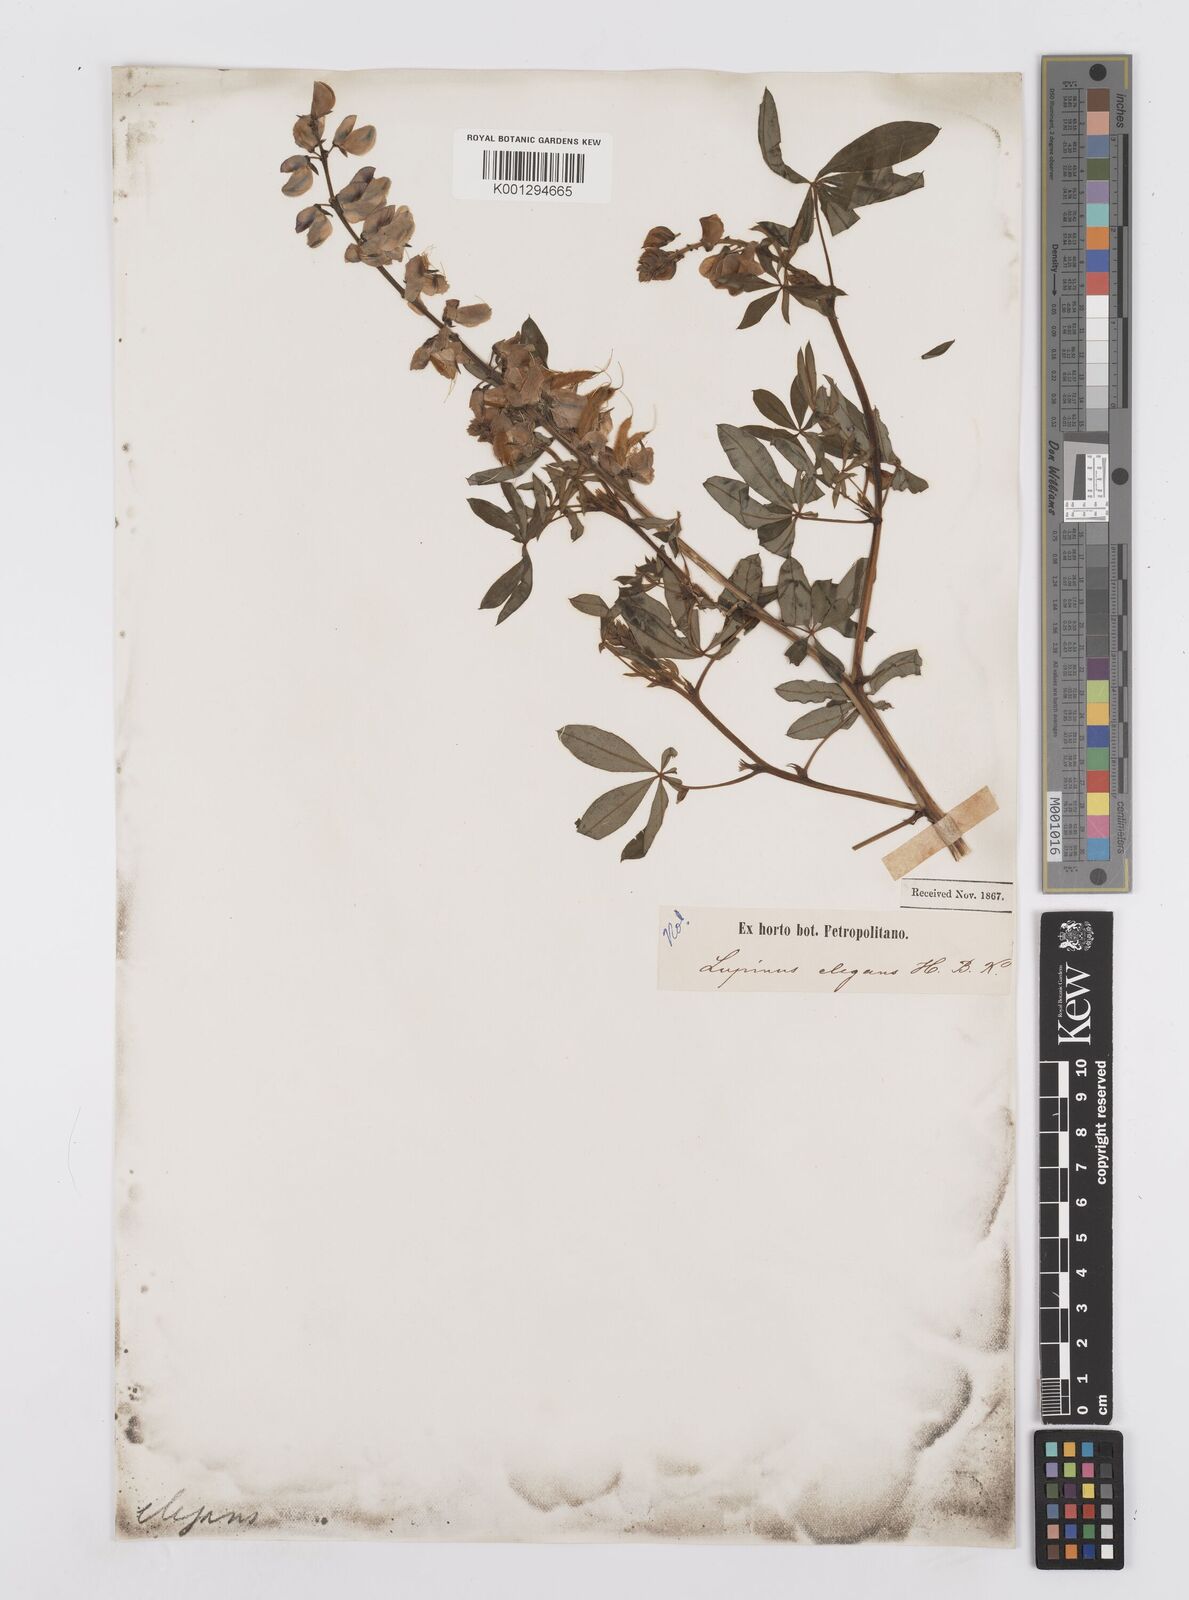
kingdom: Plantae
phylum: Tracheophyta
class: Magnoliopsida
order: Fabales
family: Fabaceae
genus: Lupinus
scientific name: Lupinus elegans
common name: Mexican lupine
